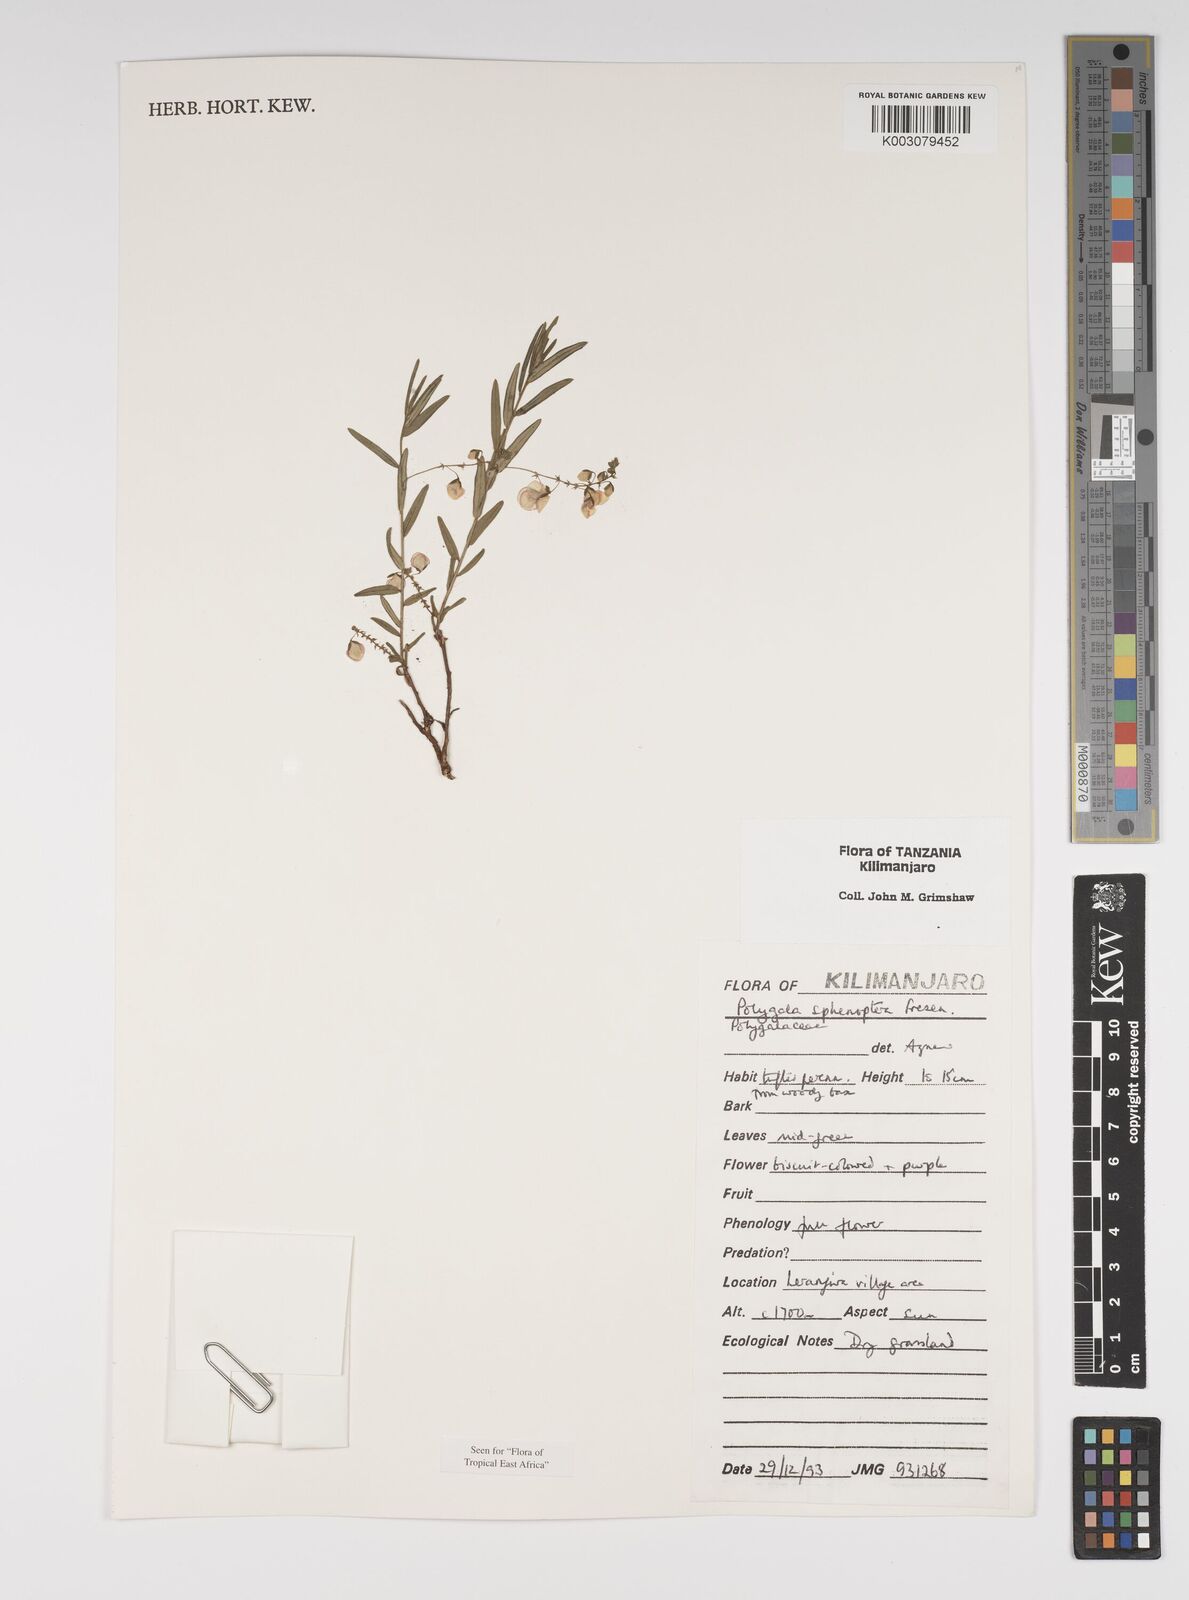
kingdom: Plantae
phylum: Tracheophyta
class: Magnoliopsida
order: Fabales
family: Polygalaceae
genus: Polygala
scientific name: Polygala sphenoptera
